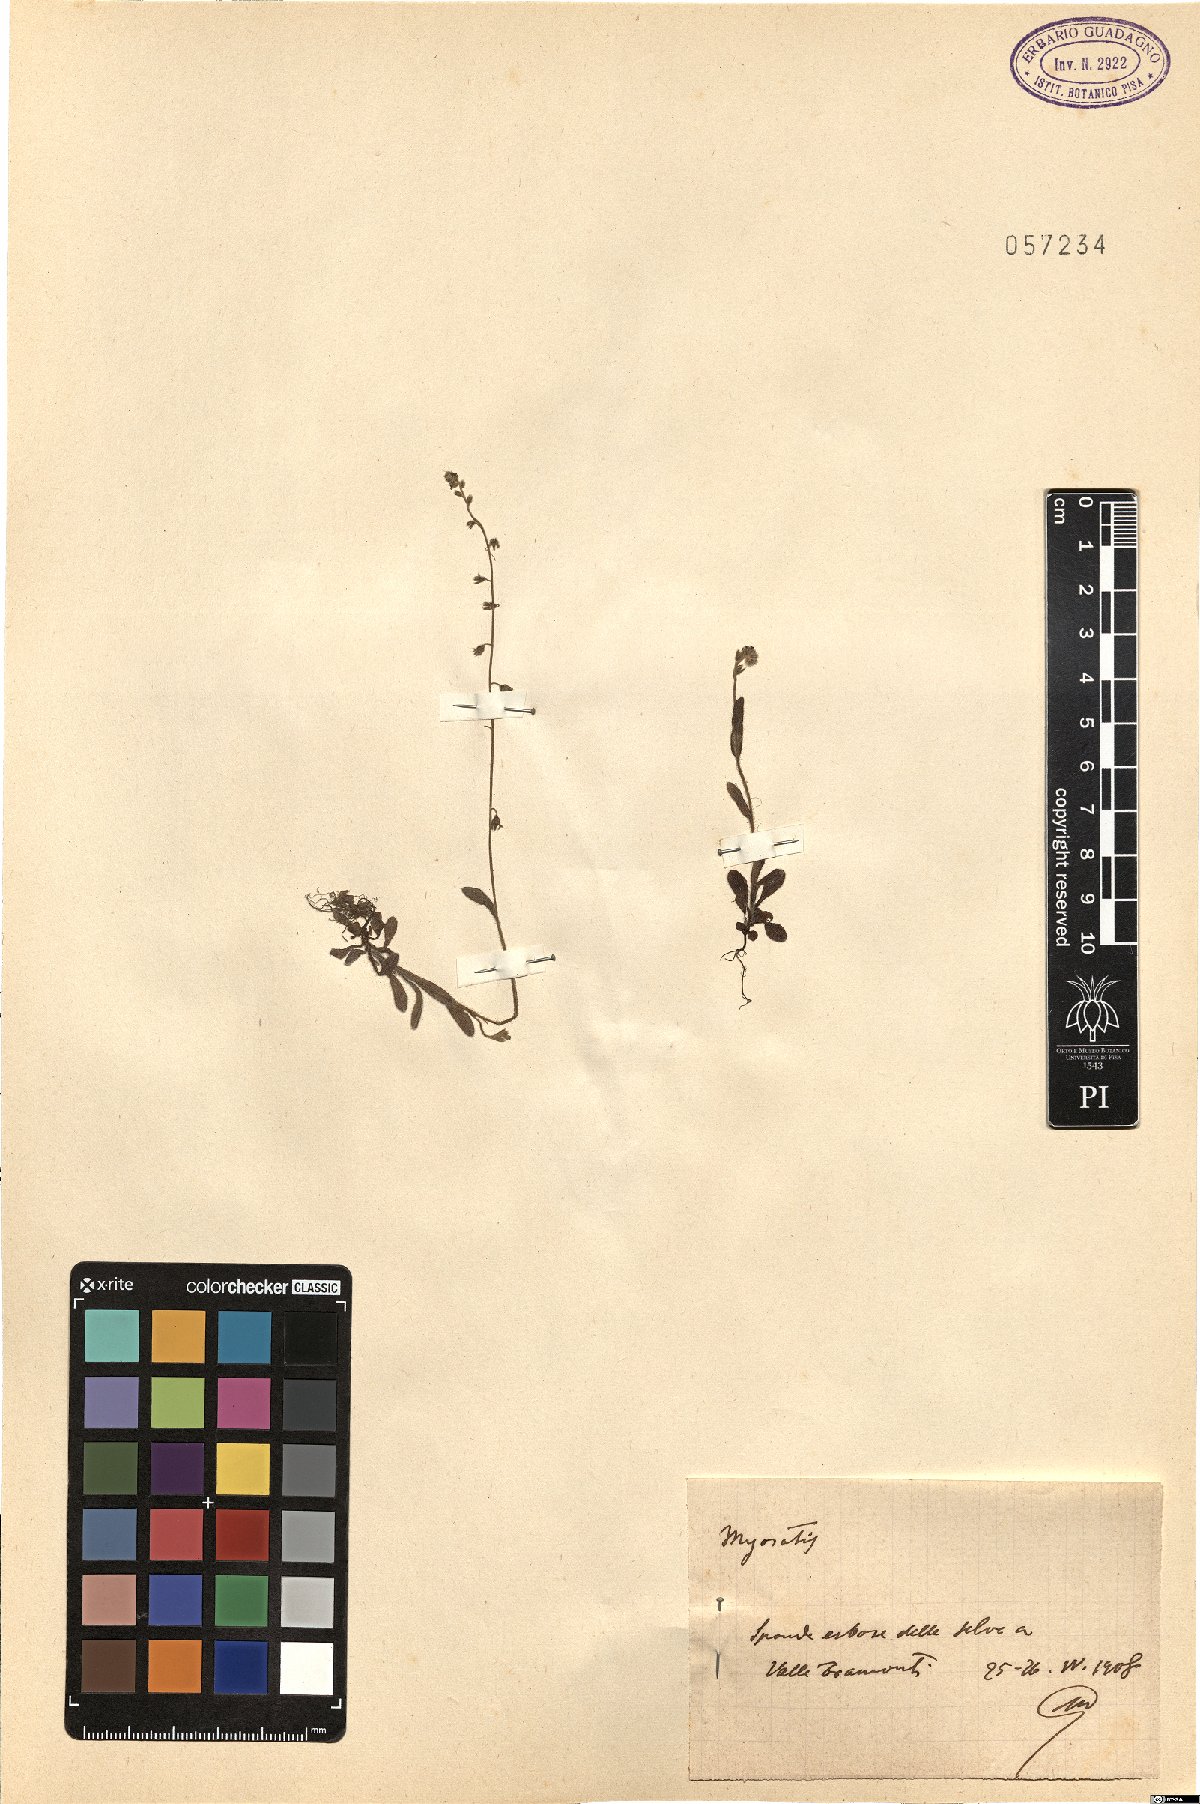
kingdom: Plantae
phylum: Tracheophyta
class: Magnoliopsida
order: Boraginales
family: Boraginaceae
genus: Myosotis
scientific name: Myosotis
